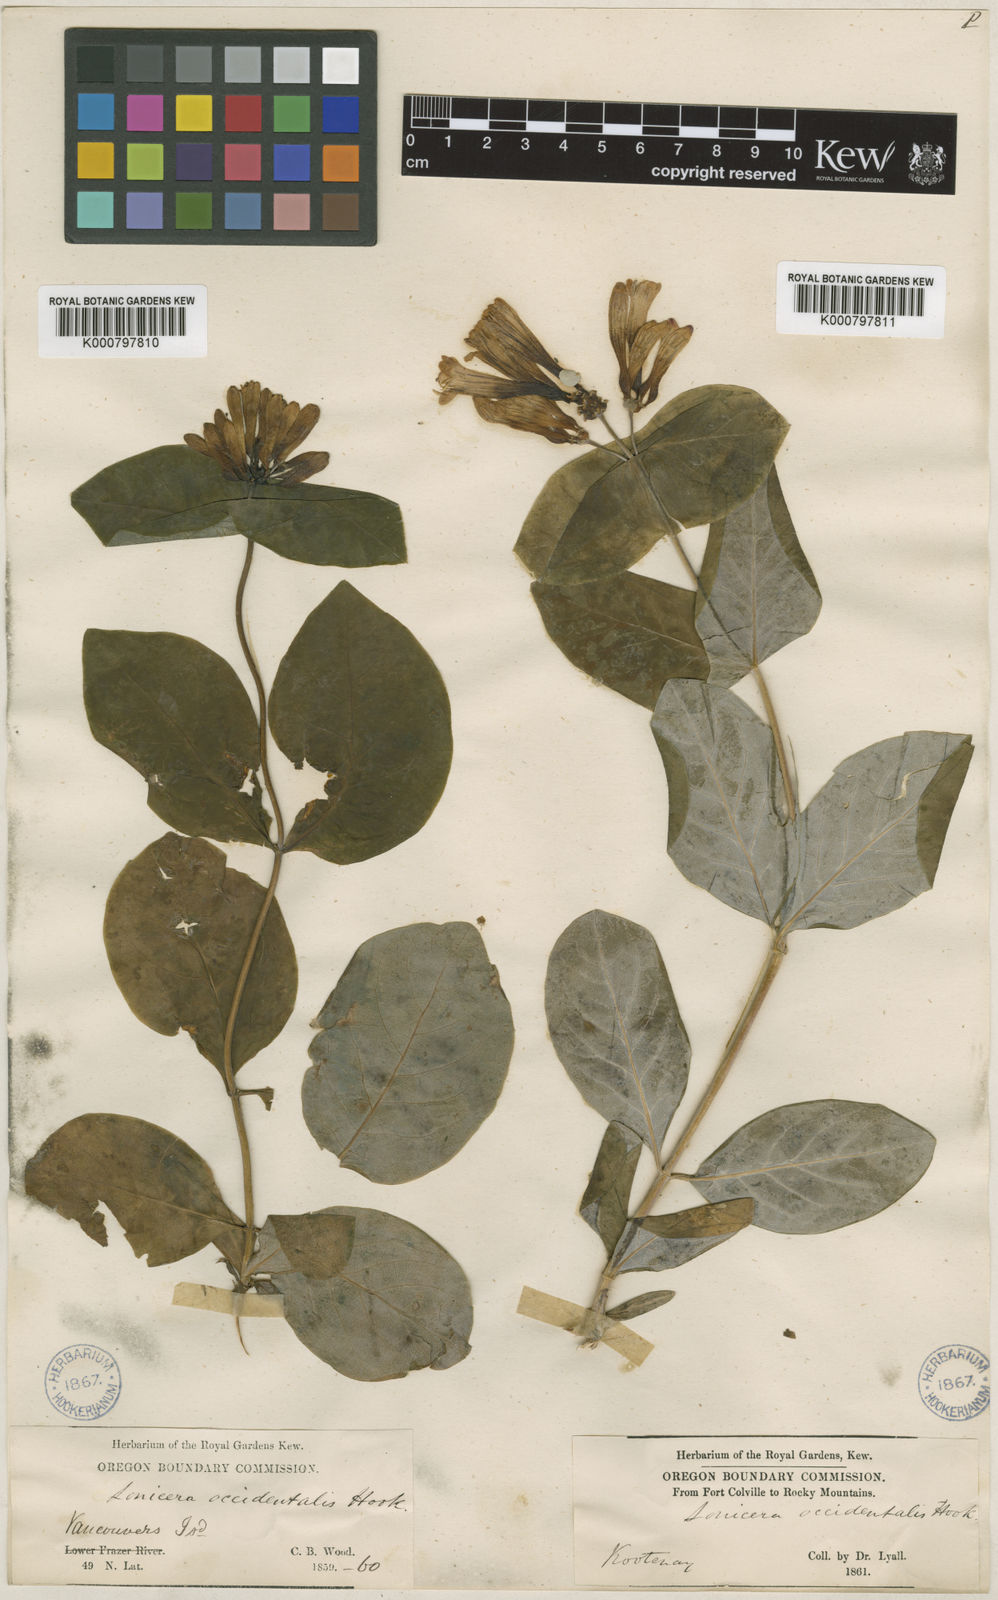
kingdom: Plantae
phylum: Tracheophyta
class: Magnoliopsida
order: Dipsacales
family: Caprifoliaceae
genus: Lonicera
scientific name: Lonicera ciliosa
